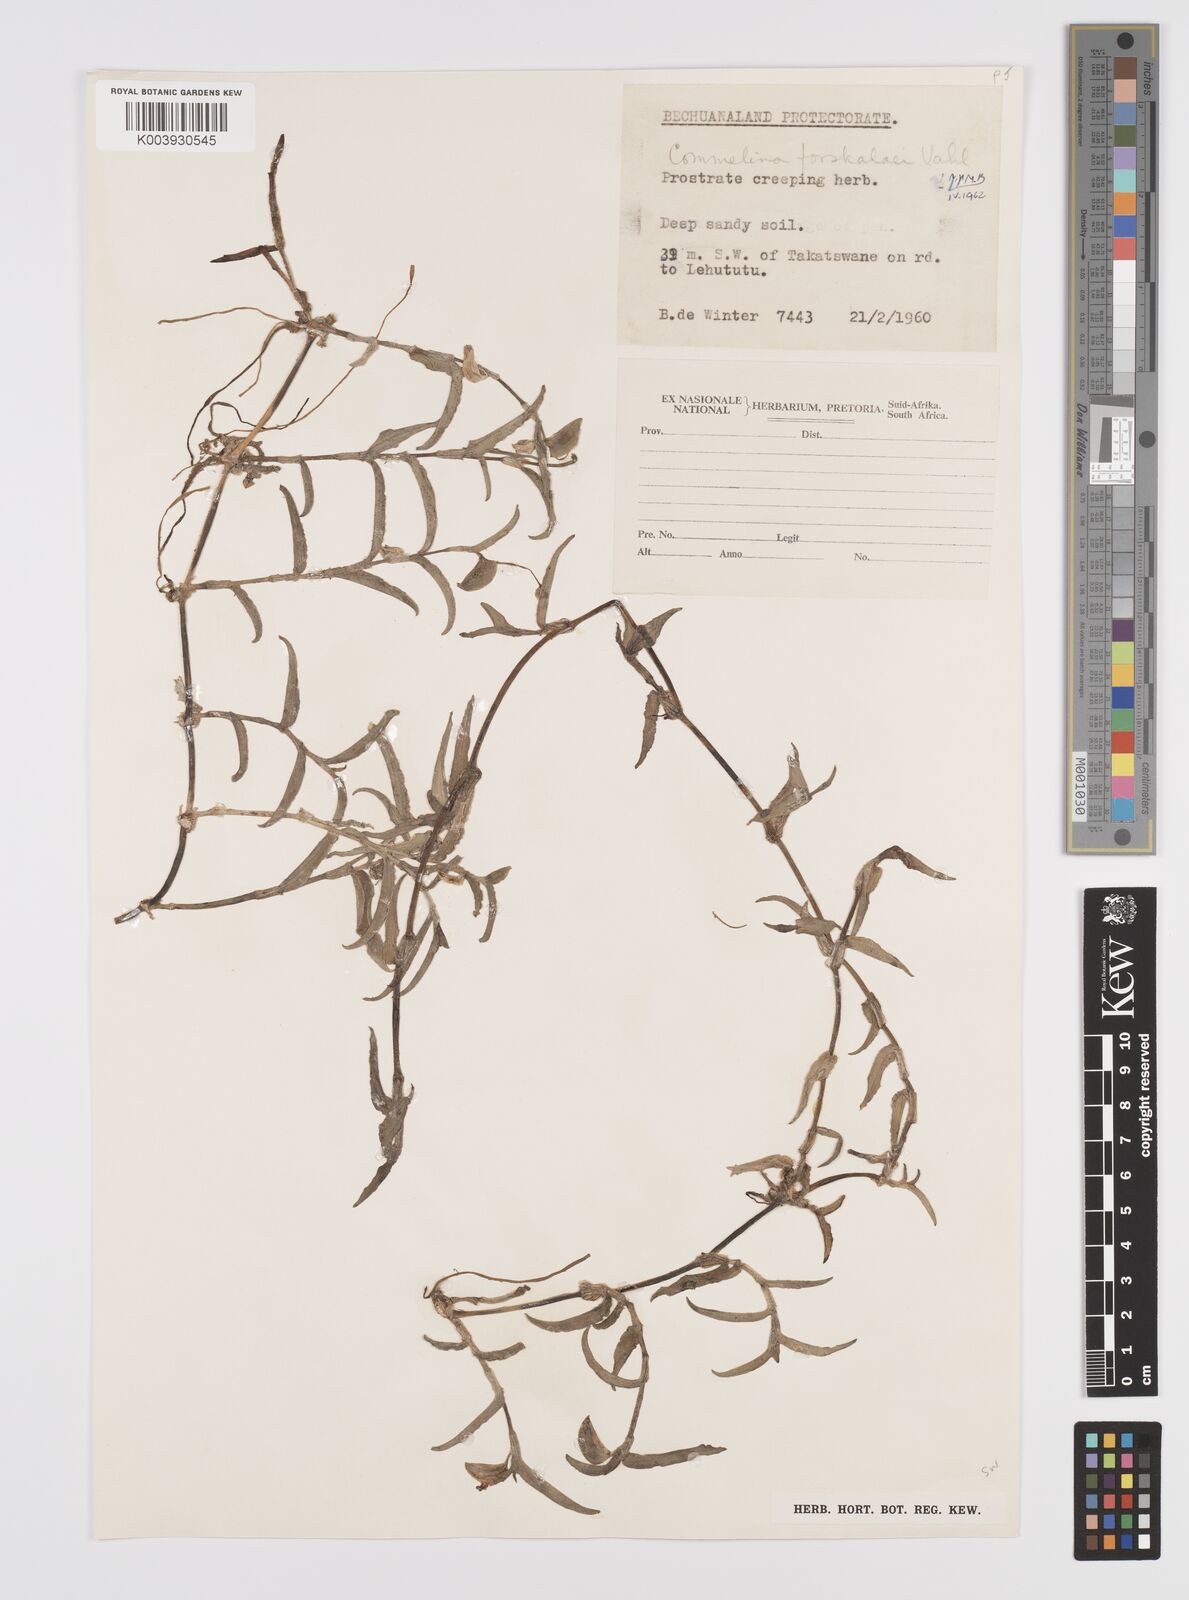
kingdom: Plantae
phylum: Tracheophyta
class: Liliopsida
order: Commelinales
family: Commelinaceae
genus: Commelina
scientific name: Commelina forskaolii
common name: Rat's ear
